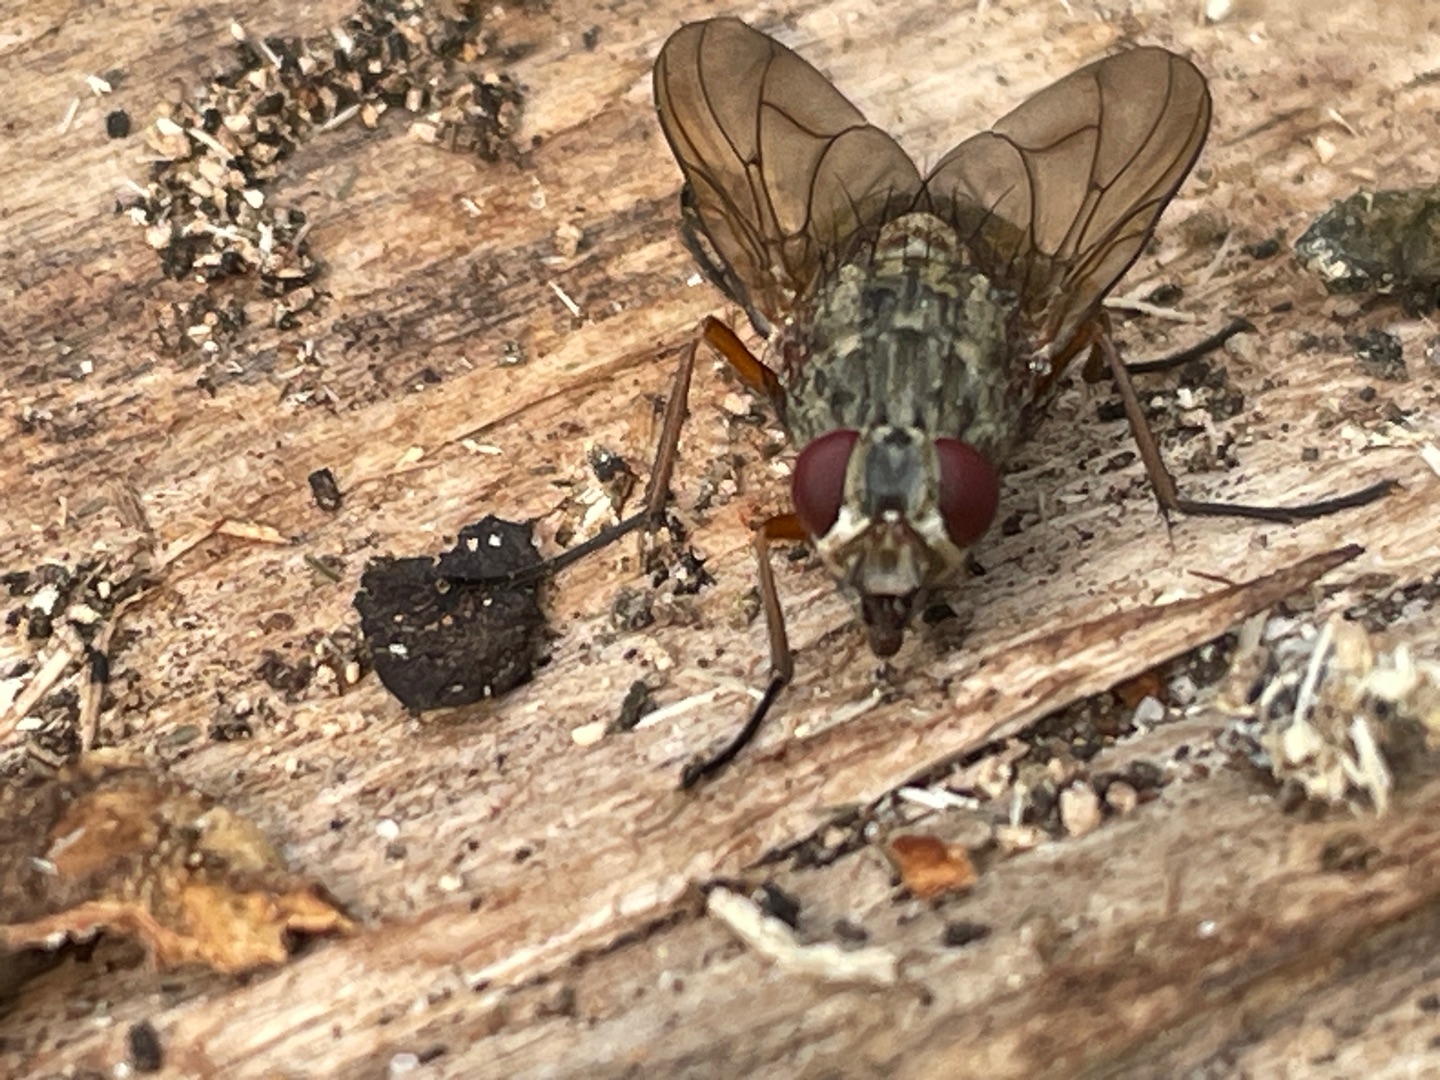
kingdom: Animalia
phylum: Arthropoda
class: Insecta
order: Diptera
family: Muscidae
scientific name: Muscidae
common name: Egentlige fluer
